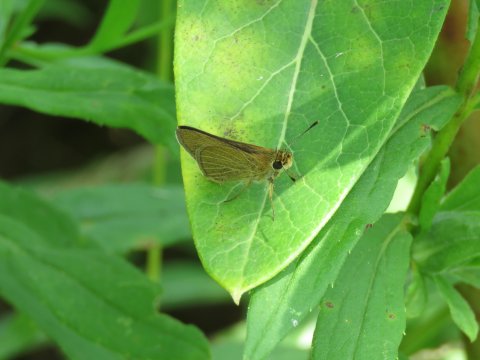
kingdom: Animalia
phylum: Arthropoda
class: Insecta
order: Lepidoptera
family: Hesperiidae
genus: Nastra
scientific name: Nastra lherminier
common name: Swarthy Skipper
